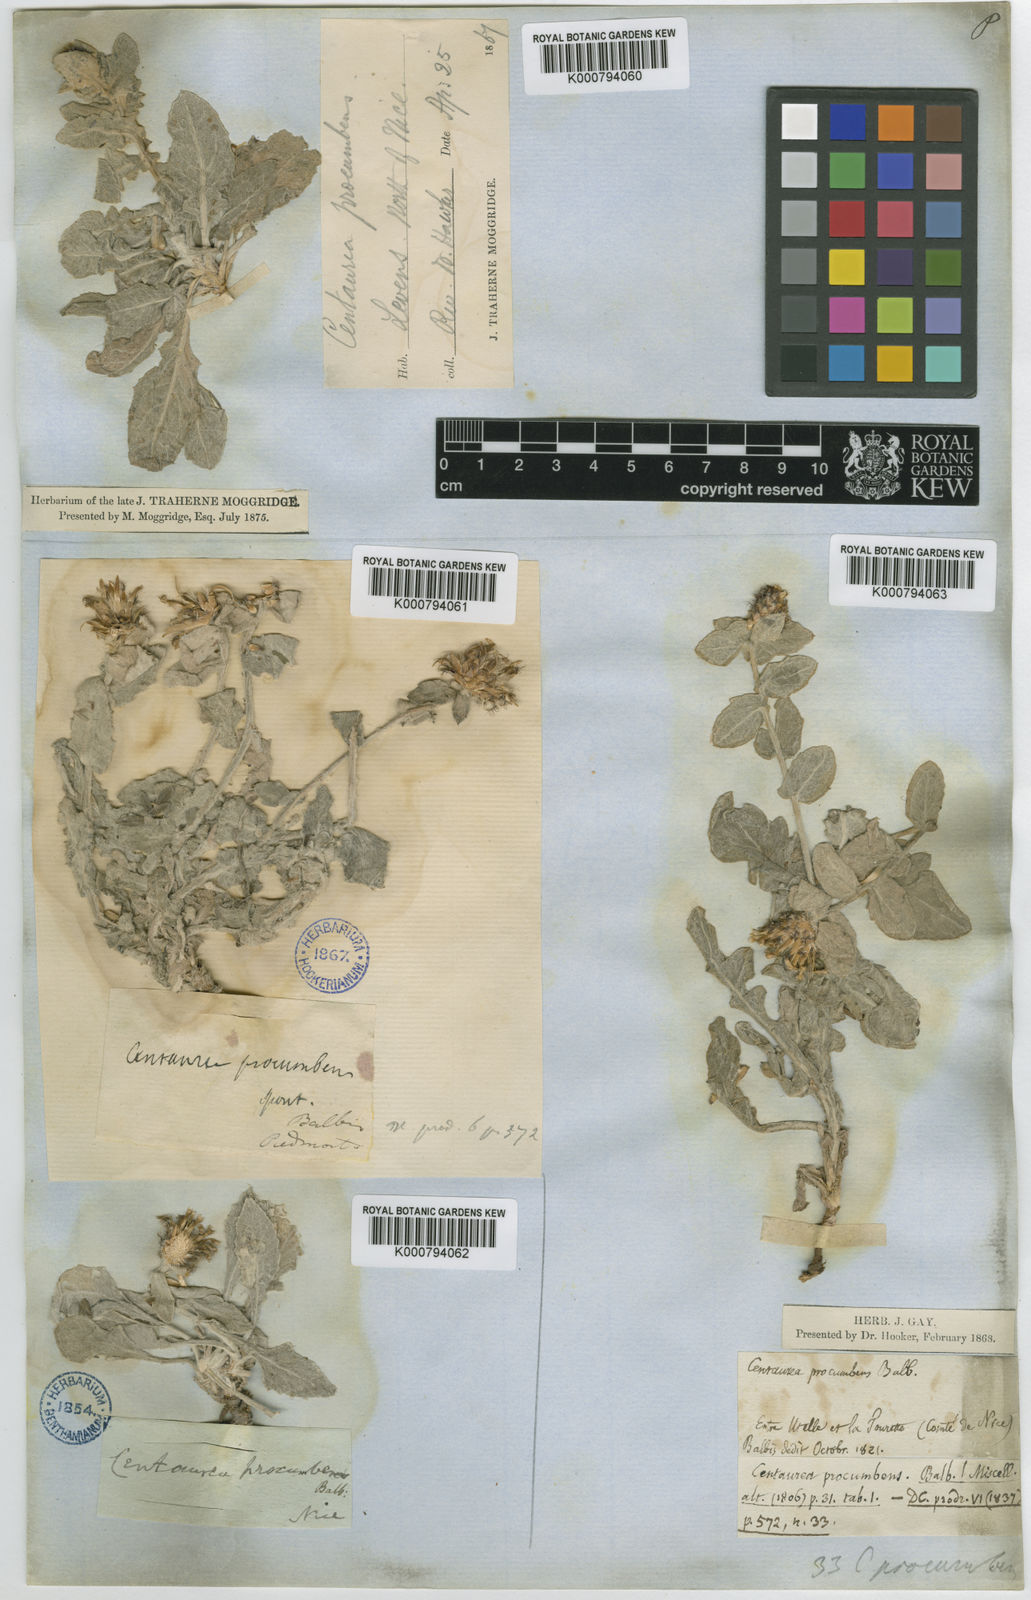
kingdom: Plantae
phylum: Tracheophyta
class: Magnoliopsida
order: Asterales
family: Asteraceae
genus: Centaurea
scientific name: Centaurea jordaniana
